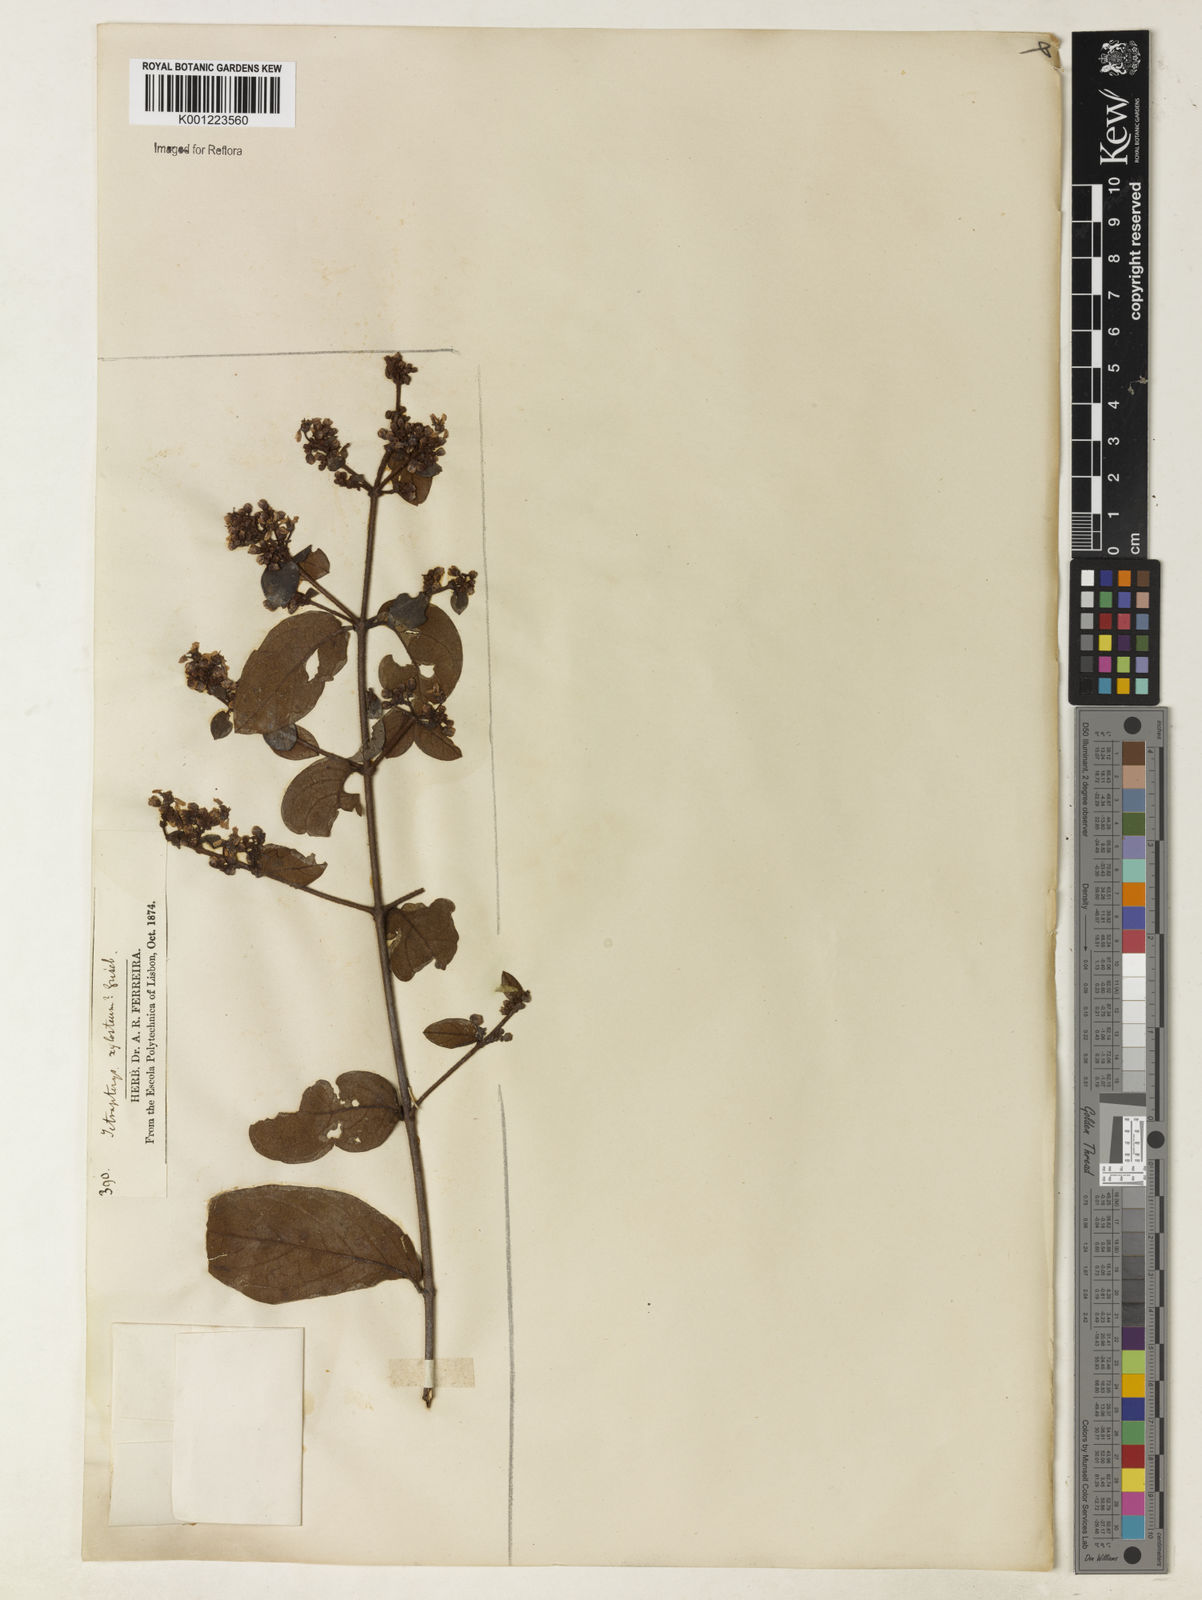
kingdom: Plantae
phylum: Tracheophyta
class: Magnoliopsida
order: Malpighiales
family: Malpighiaceae
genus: Heteropterys
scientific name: Heteropterys trichanthera
